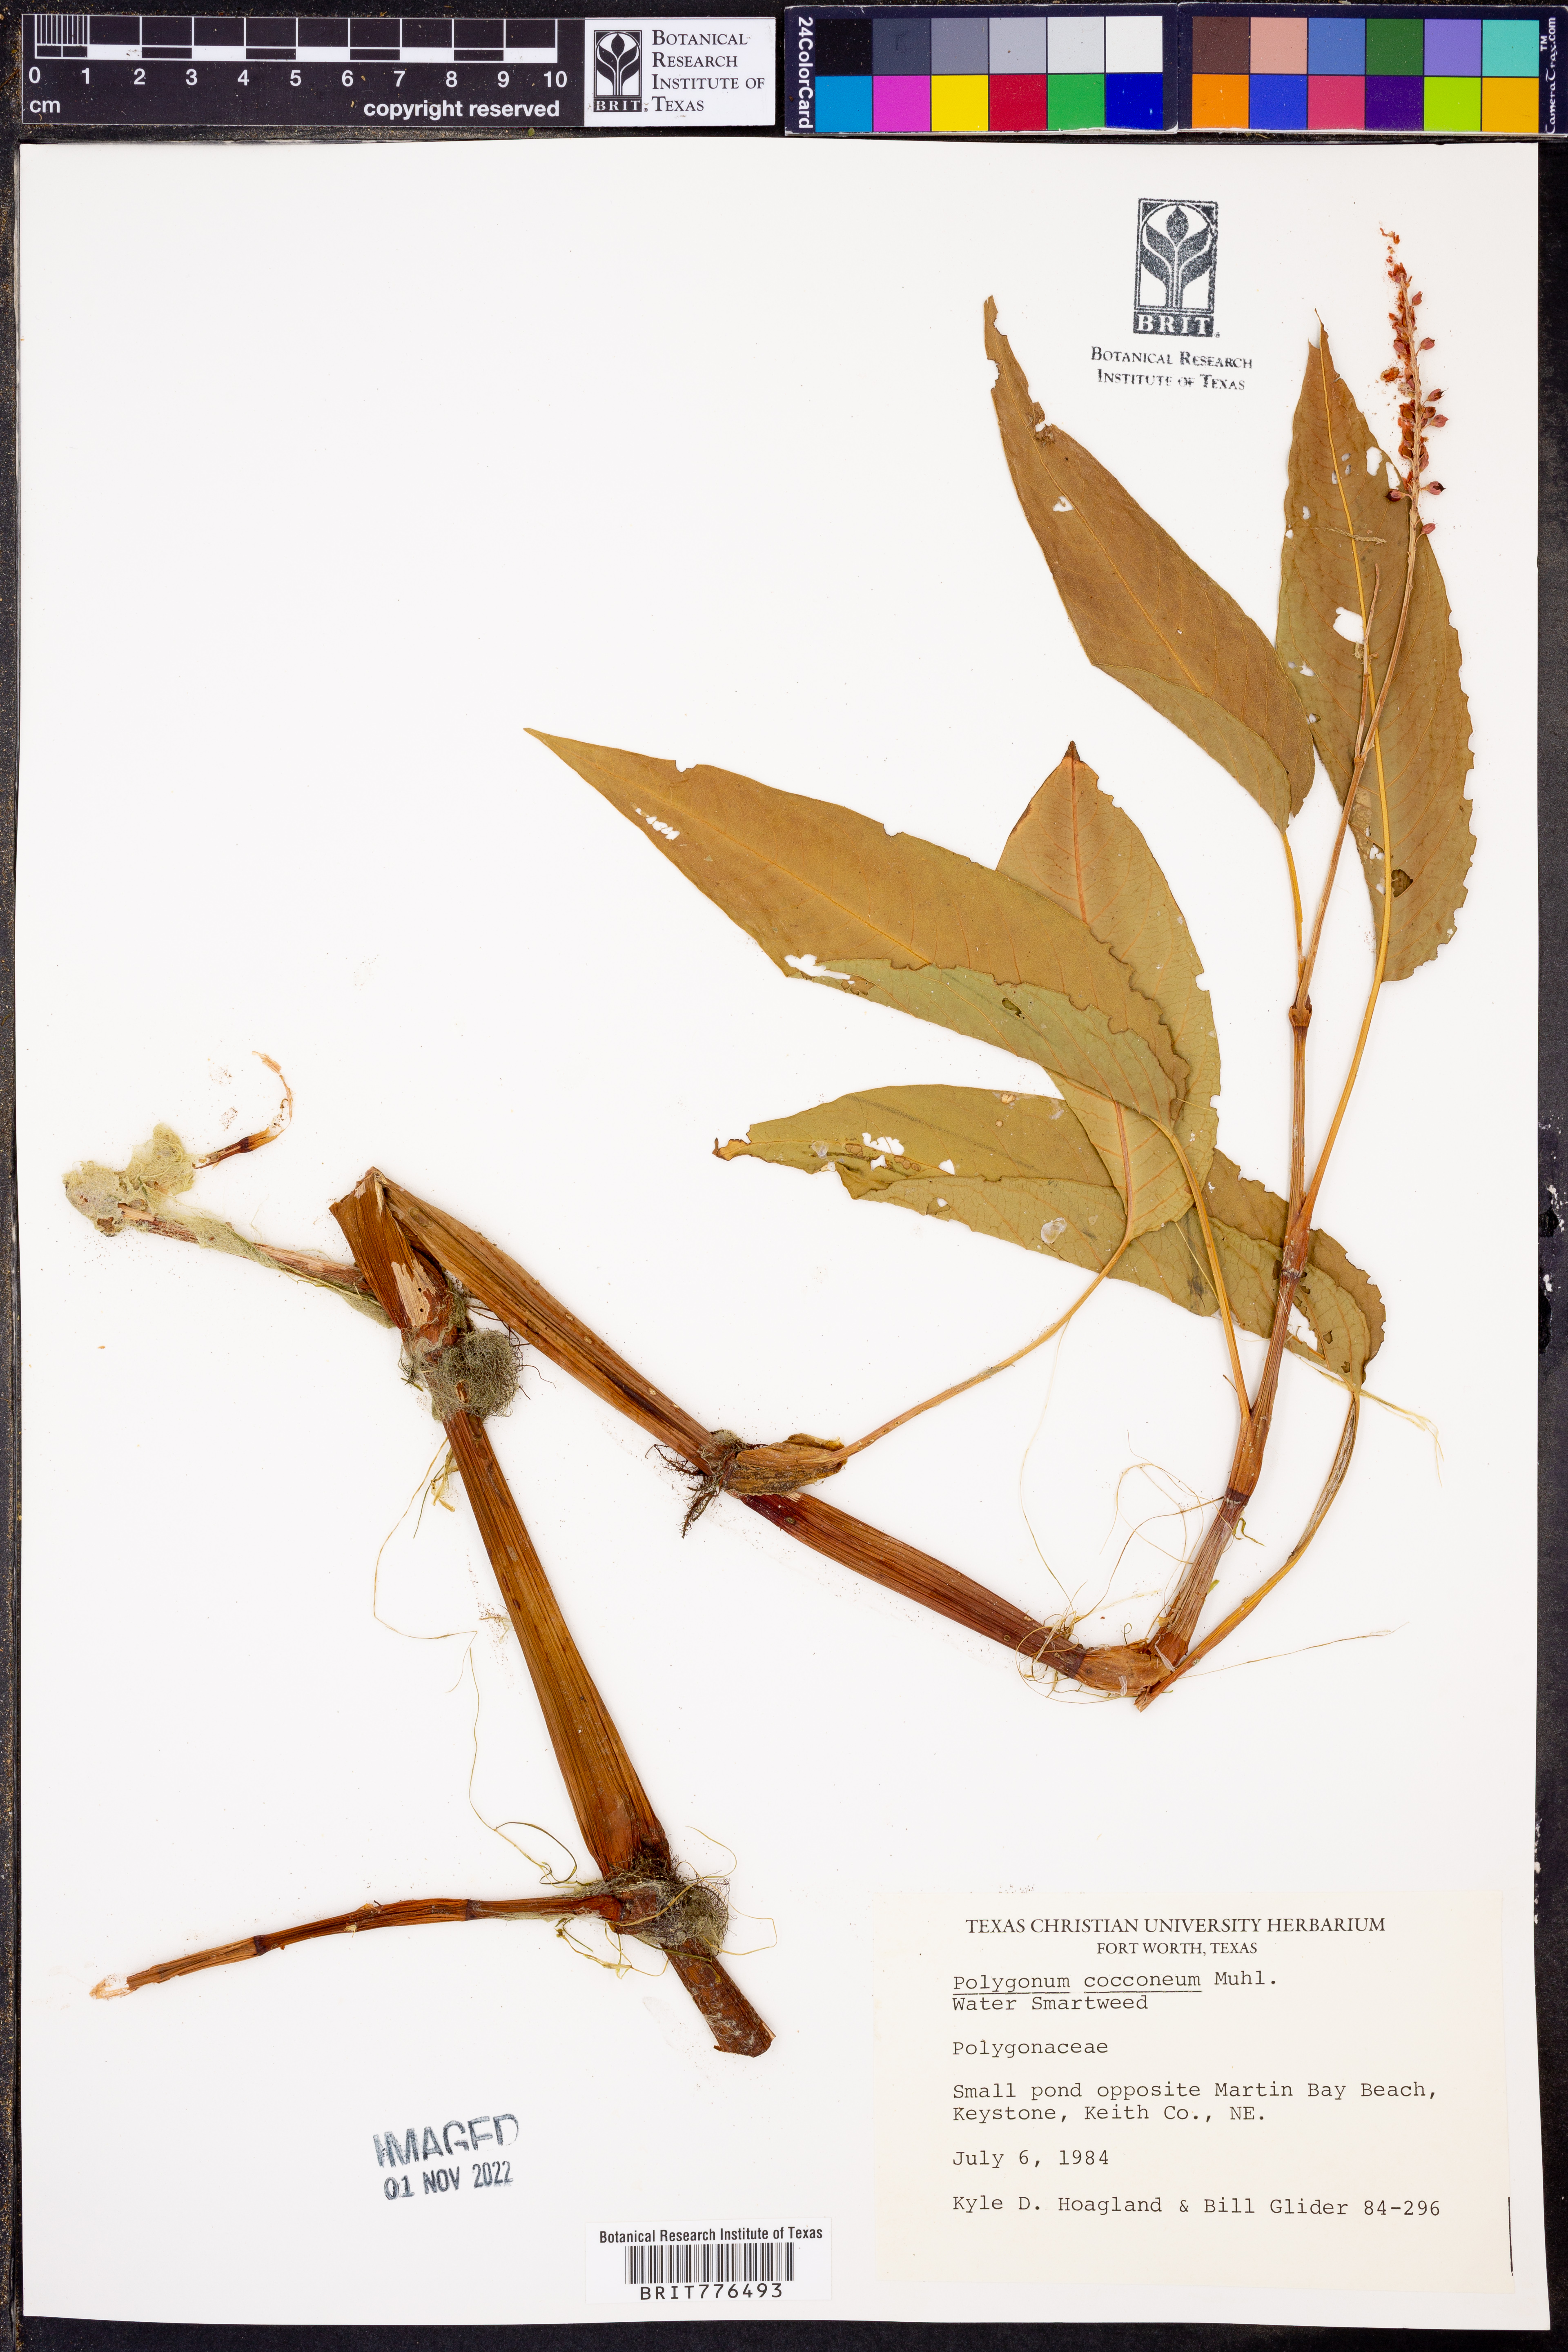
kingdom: Plantae
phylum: Tracheophyta
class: Magnoliopsida
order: Caryophyllales
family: Polygonaceae
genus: Persicaria
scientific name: Persicaria amphibia
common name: Amphibious bistort
